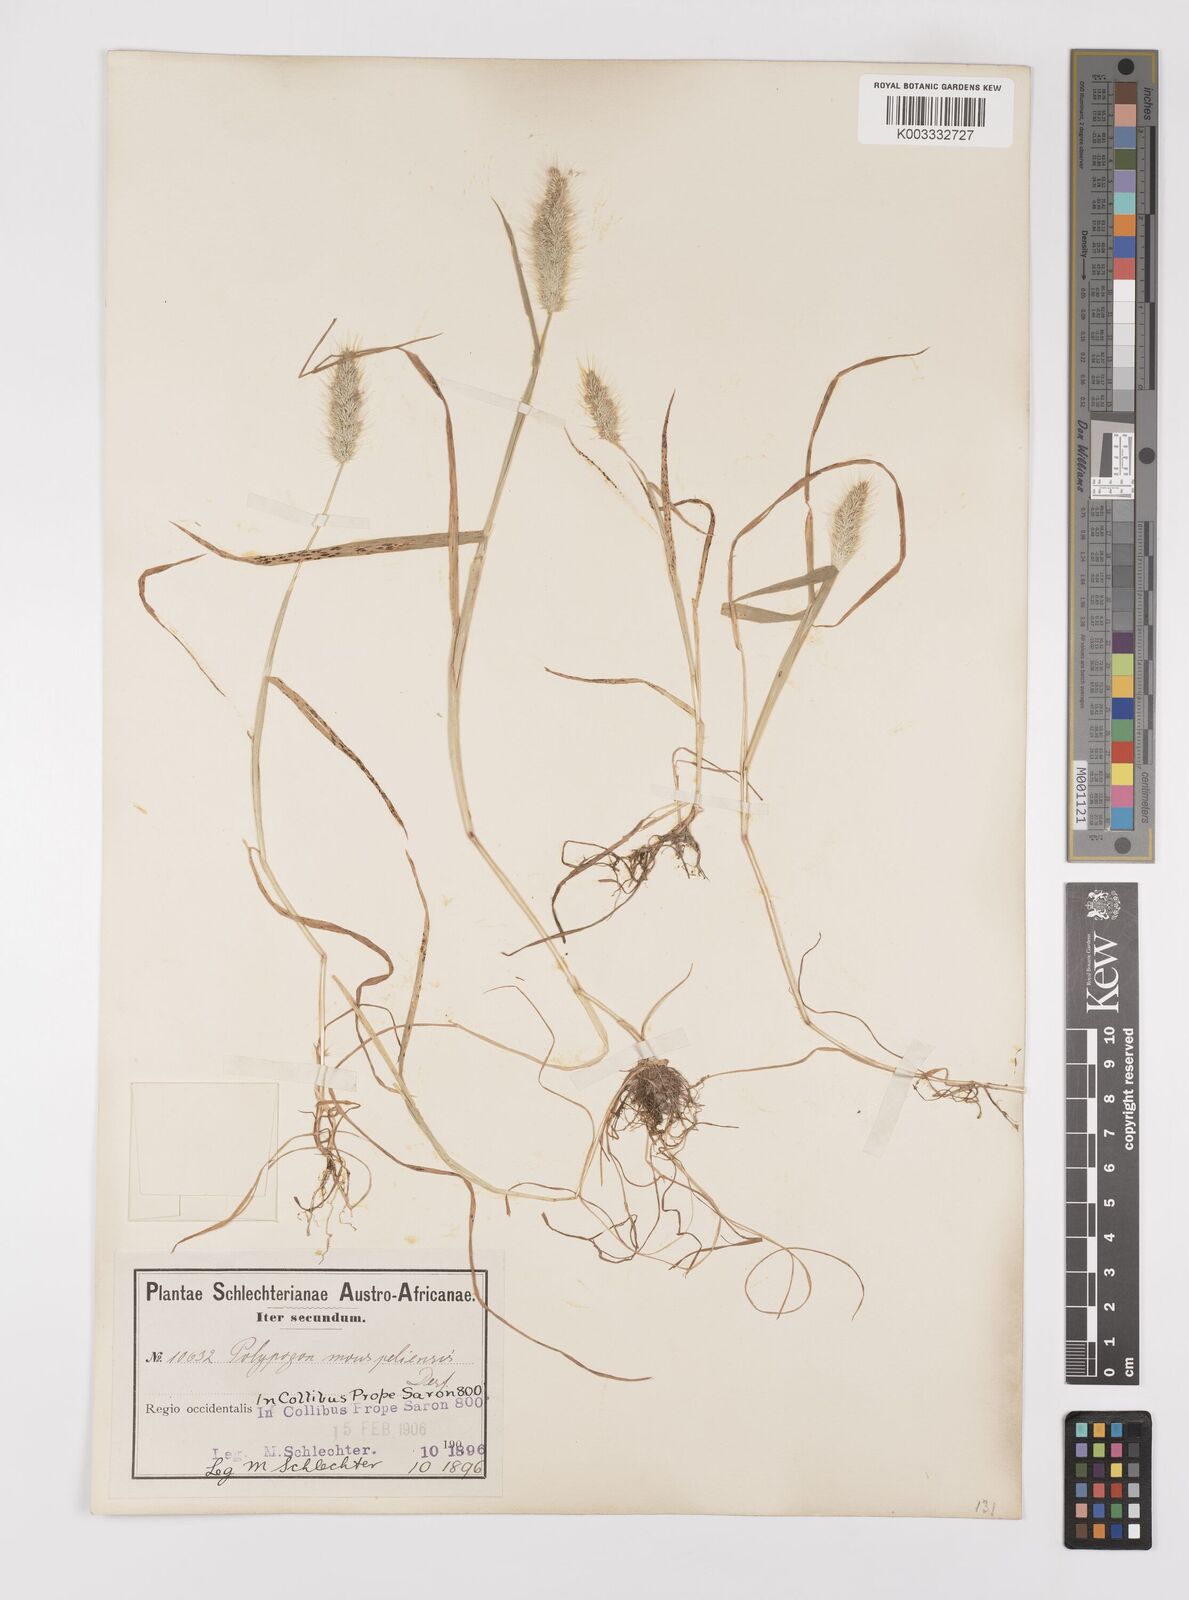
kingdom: Plantae
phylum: Tracheophyta
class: Liliopsida
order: Poales
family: Poaceae
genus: Polypogon
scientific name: Polypogon monspeliensis
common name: Annual rabbitsfoot grass
